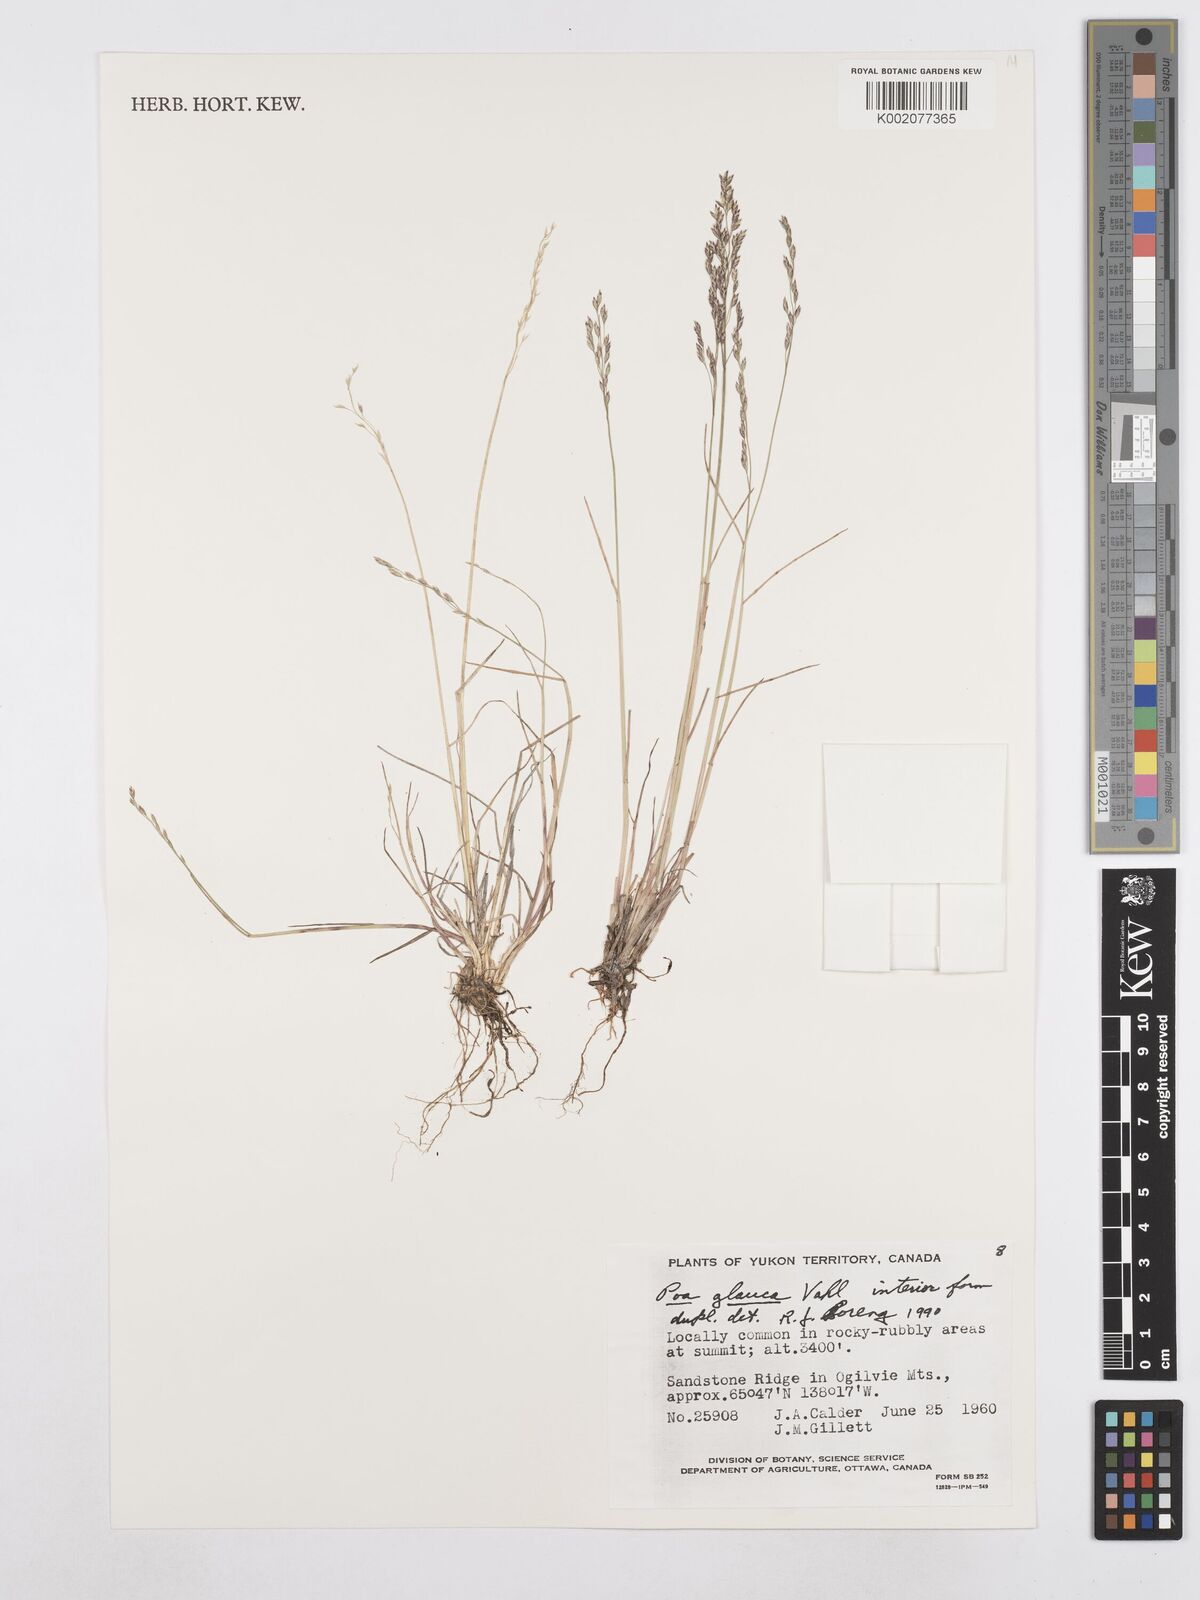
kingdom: Plantae
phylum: Tracheophyta
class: Liliopsida
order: Poales
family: Poaceae
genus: Poa
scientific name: Poa glauca
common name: Glaucous bluegrass
